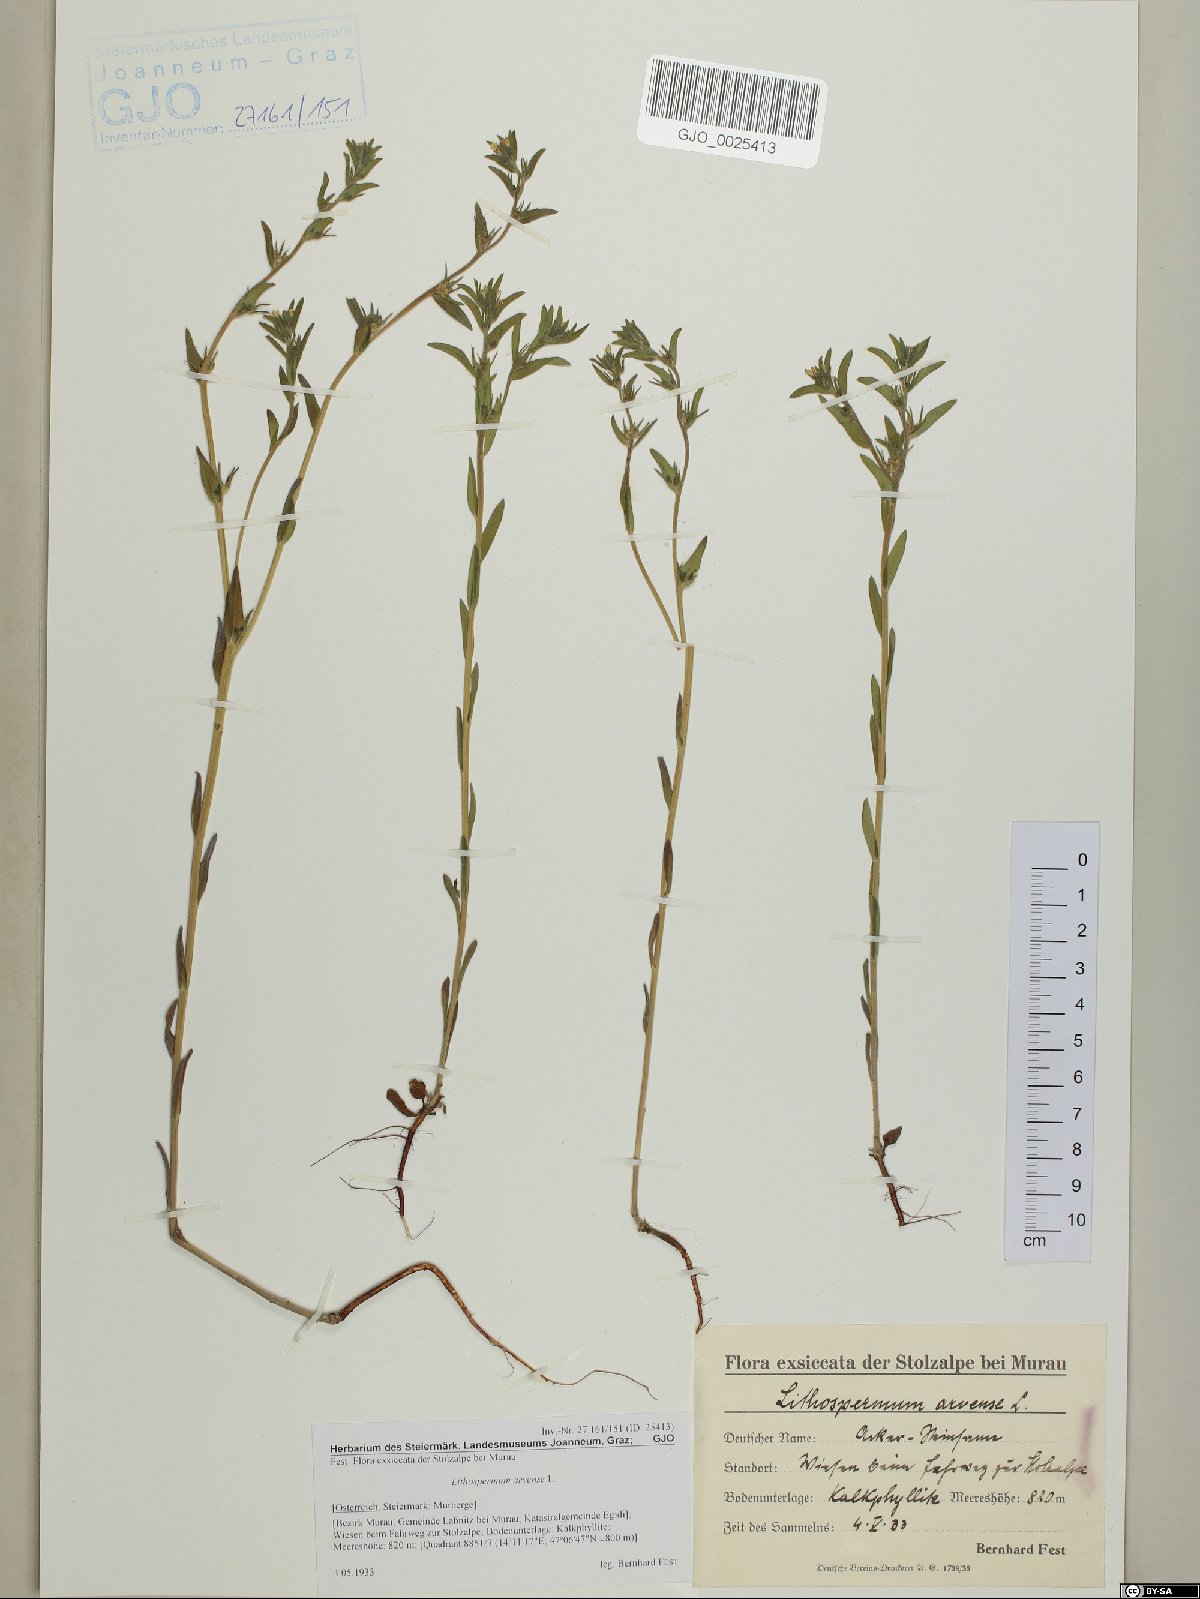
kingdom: Plantae
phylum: Tracheophyta
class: Magnoliopsida
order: Boraginales
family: Boraginaceae
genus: Buglossoides
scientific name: Buglossoides arvensis
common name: Corn gromwell
